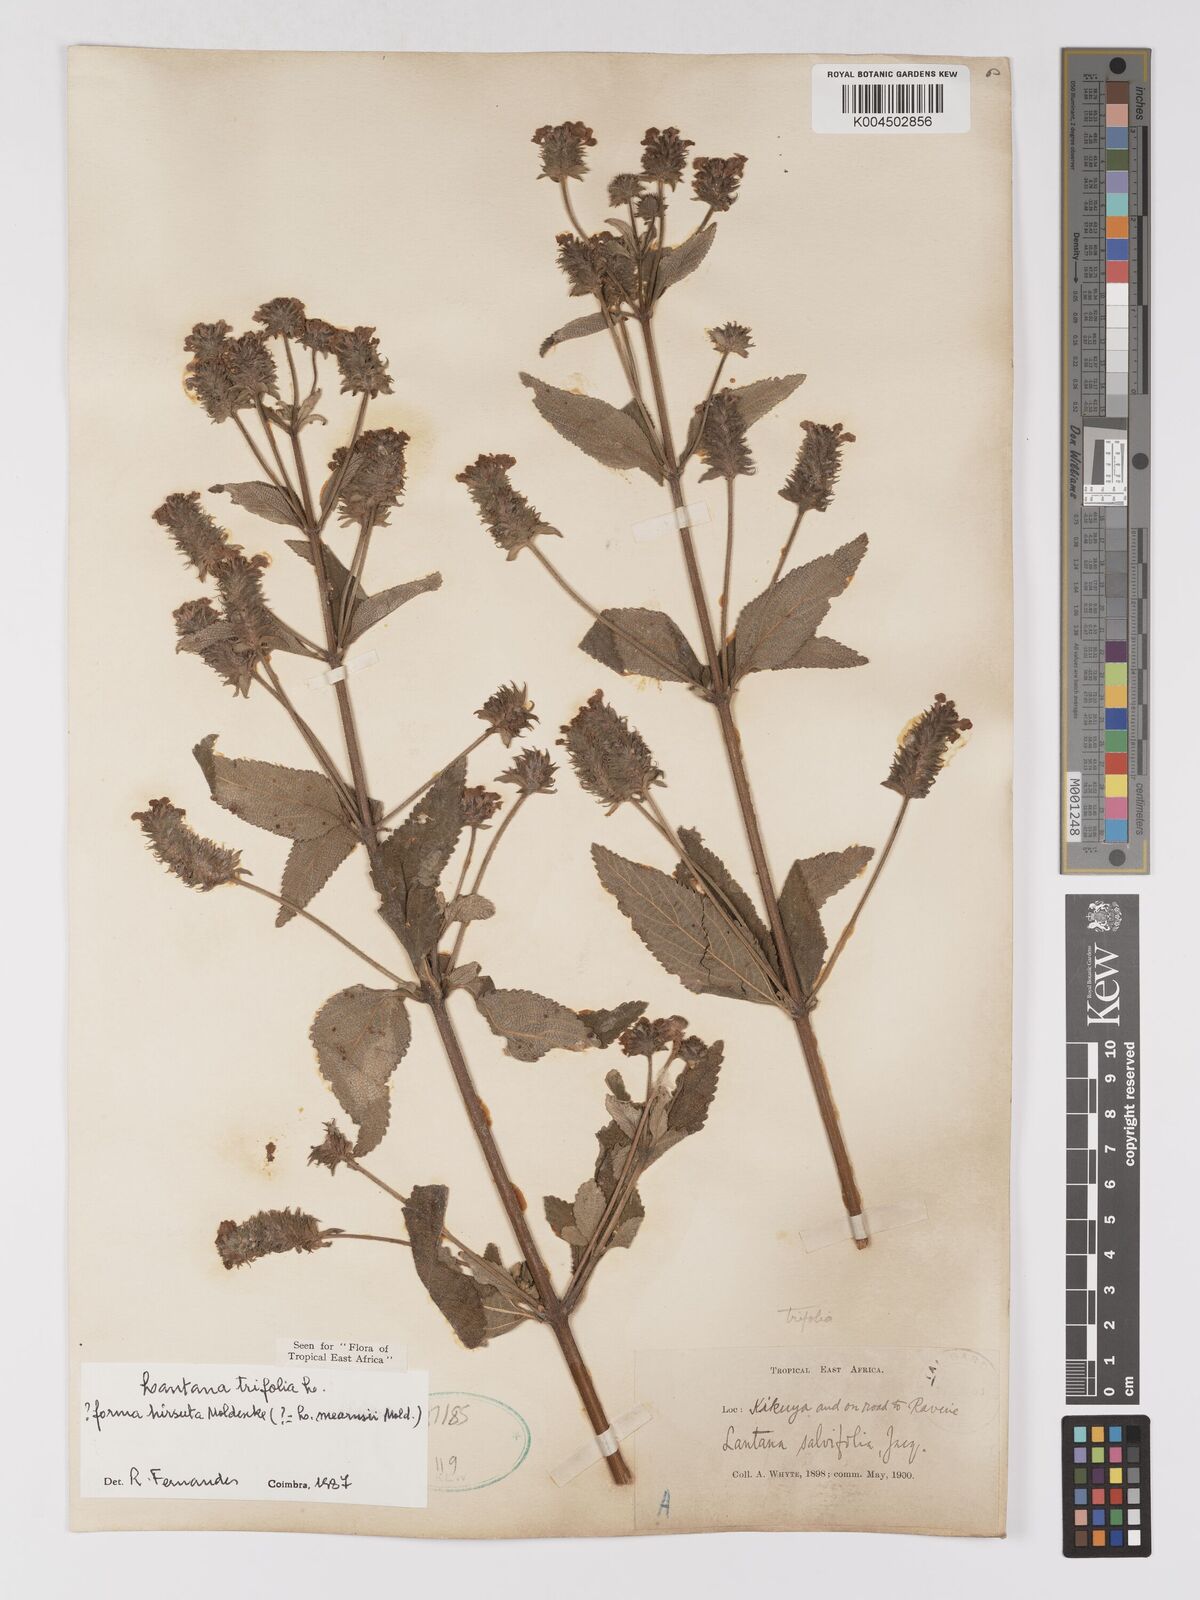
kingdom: Plantae
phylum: Tracheophyta
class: Magnoliopsida
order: Lamiales
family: Verbenaceae
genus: Lantana
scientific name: Lantana trifolia
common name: Sweet-sage
